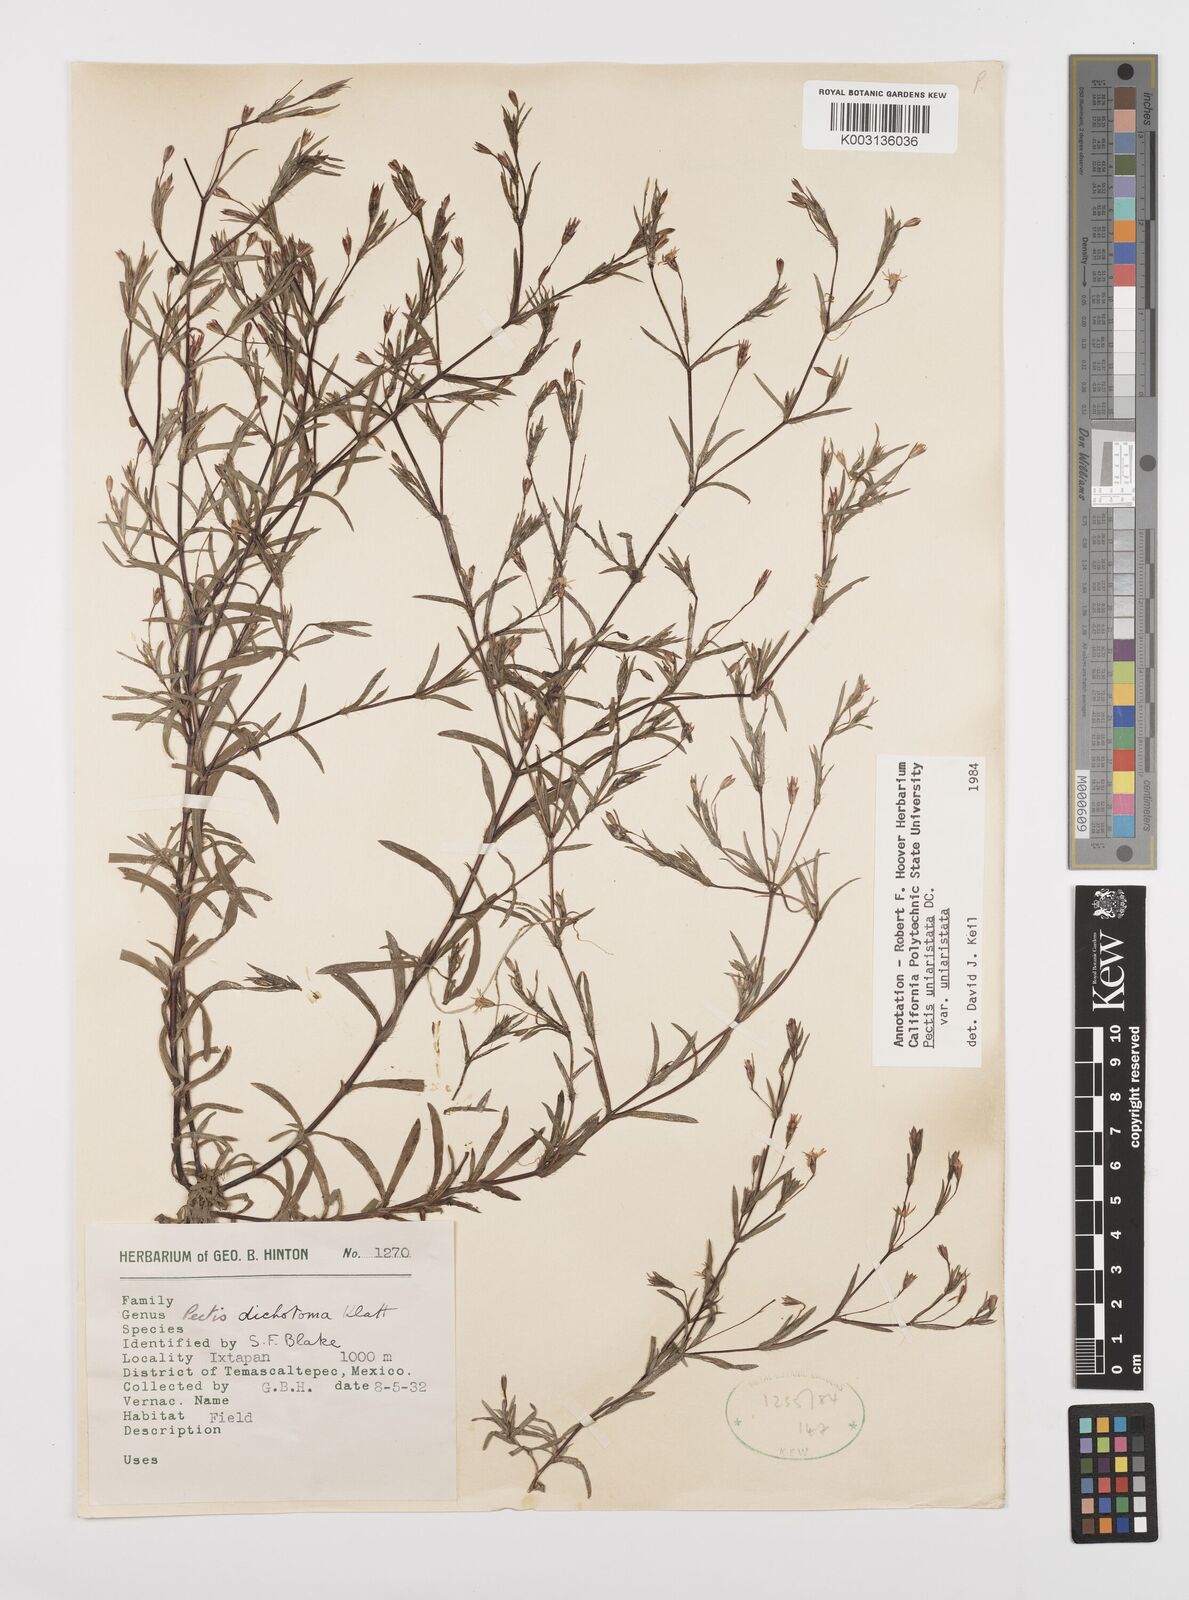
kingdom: Plantae
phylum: Tracheophyta
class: Magnoliopsida
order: Asterales
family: Asteraceae
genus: Pectis
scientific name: Pectis uniaristata
